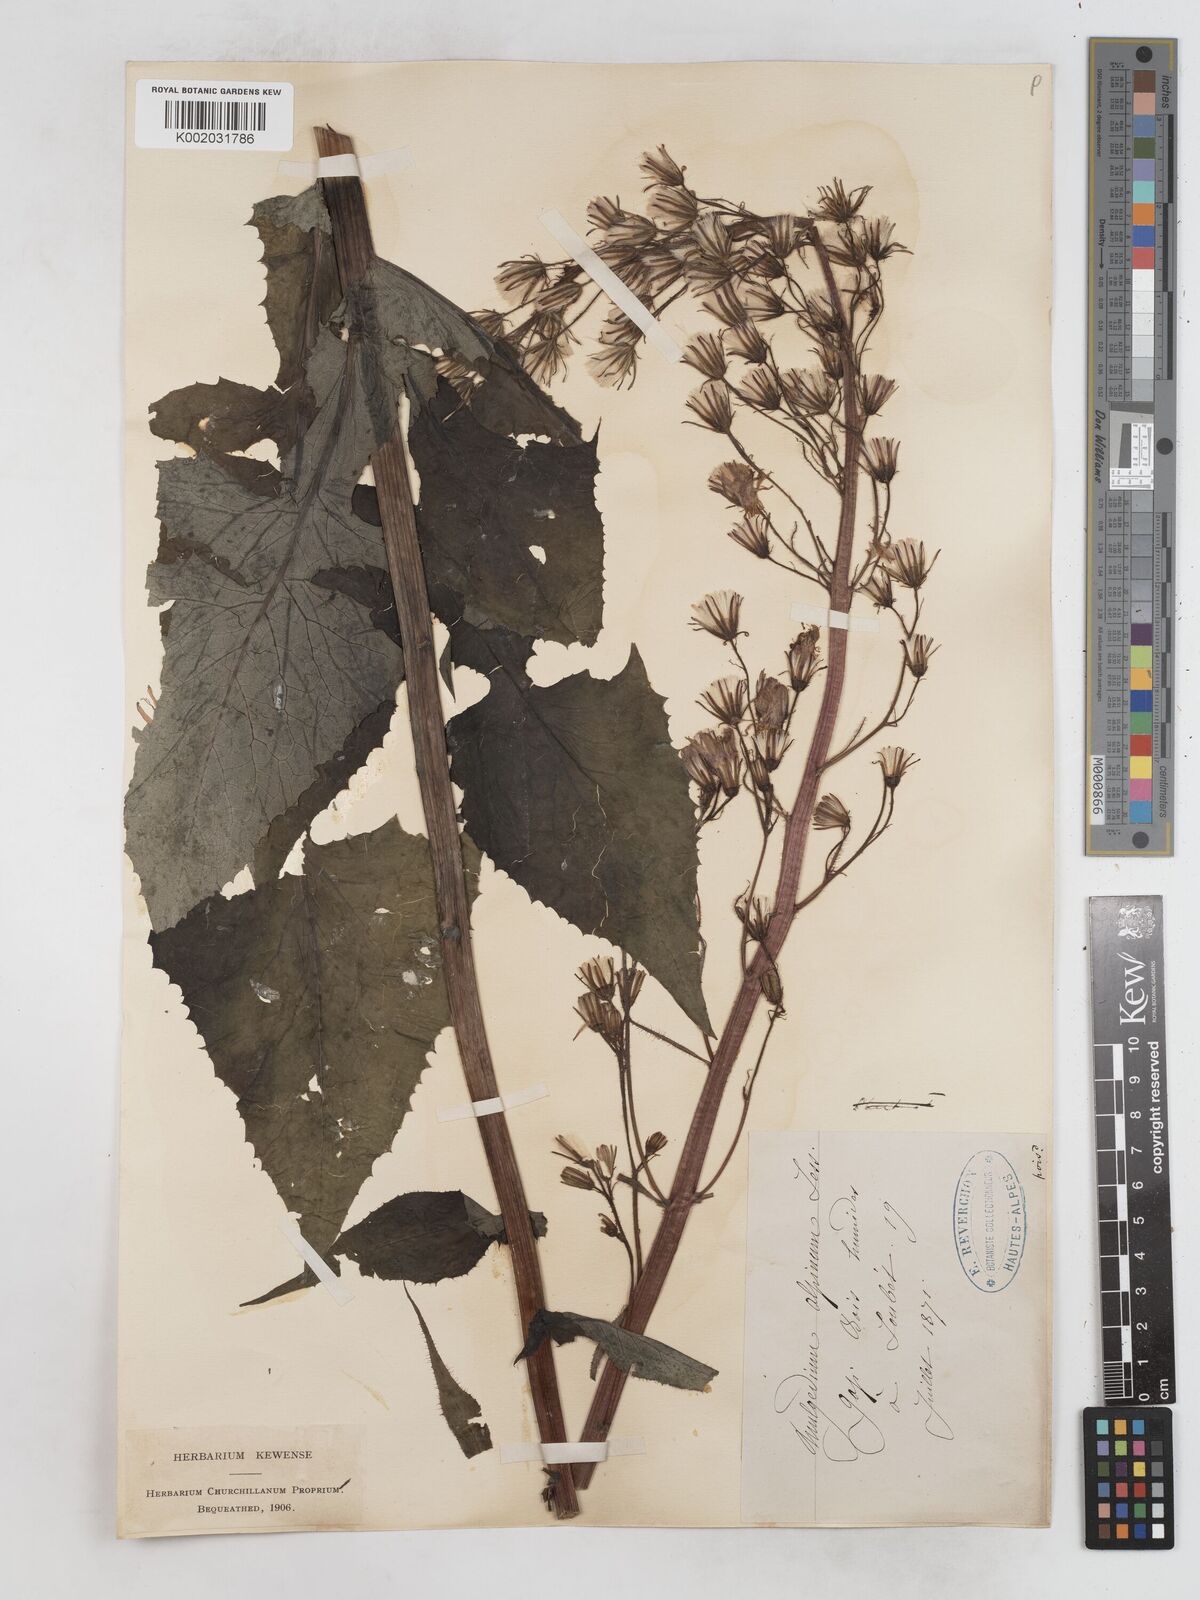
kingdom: Plantae
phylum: Tracheophyta
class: Magnoliopsida
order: Asterales
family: Asteraceae
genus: Cicerbita
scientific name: Cicerbita alpina
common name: Alpine blue-sow-thistle
